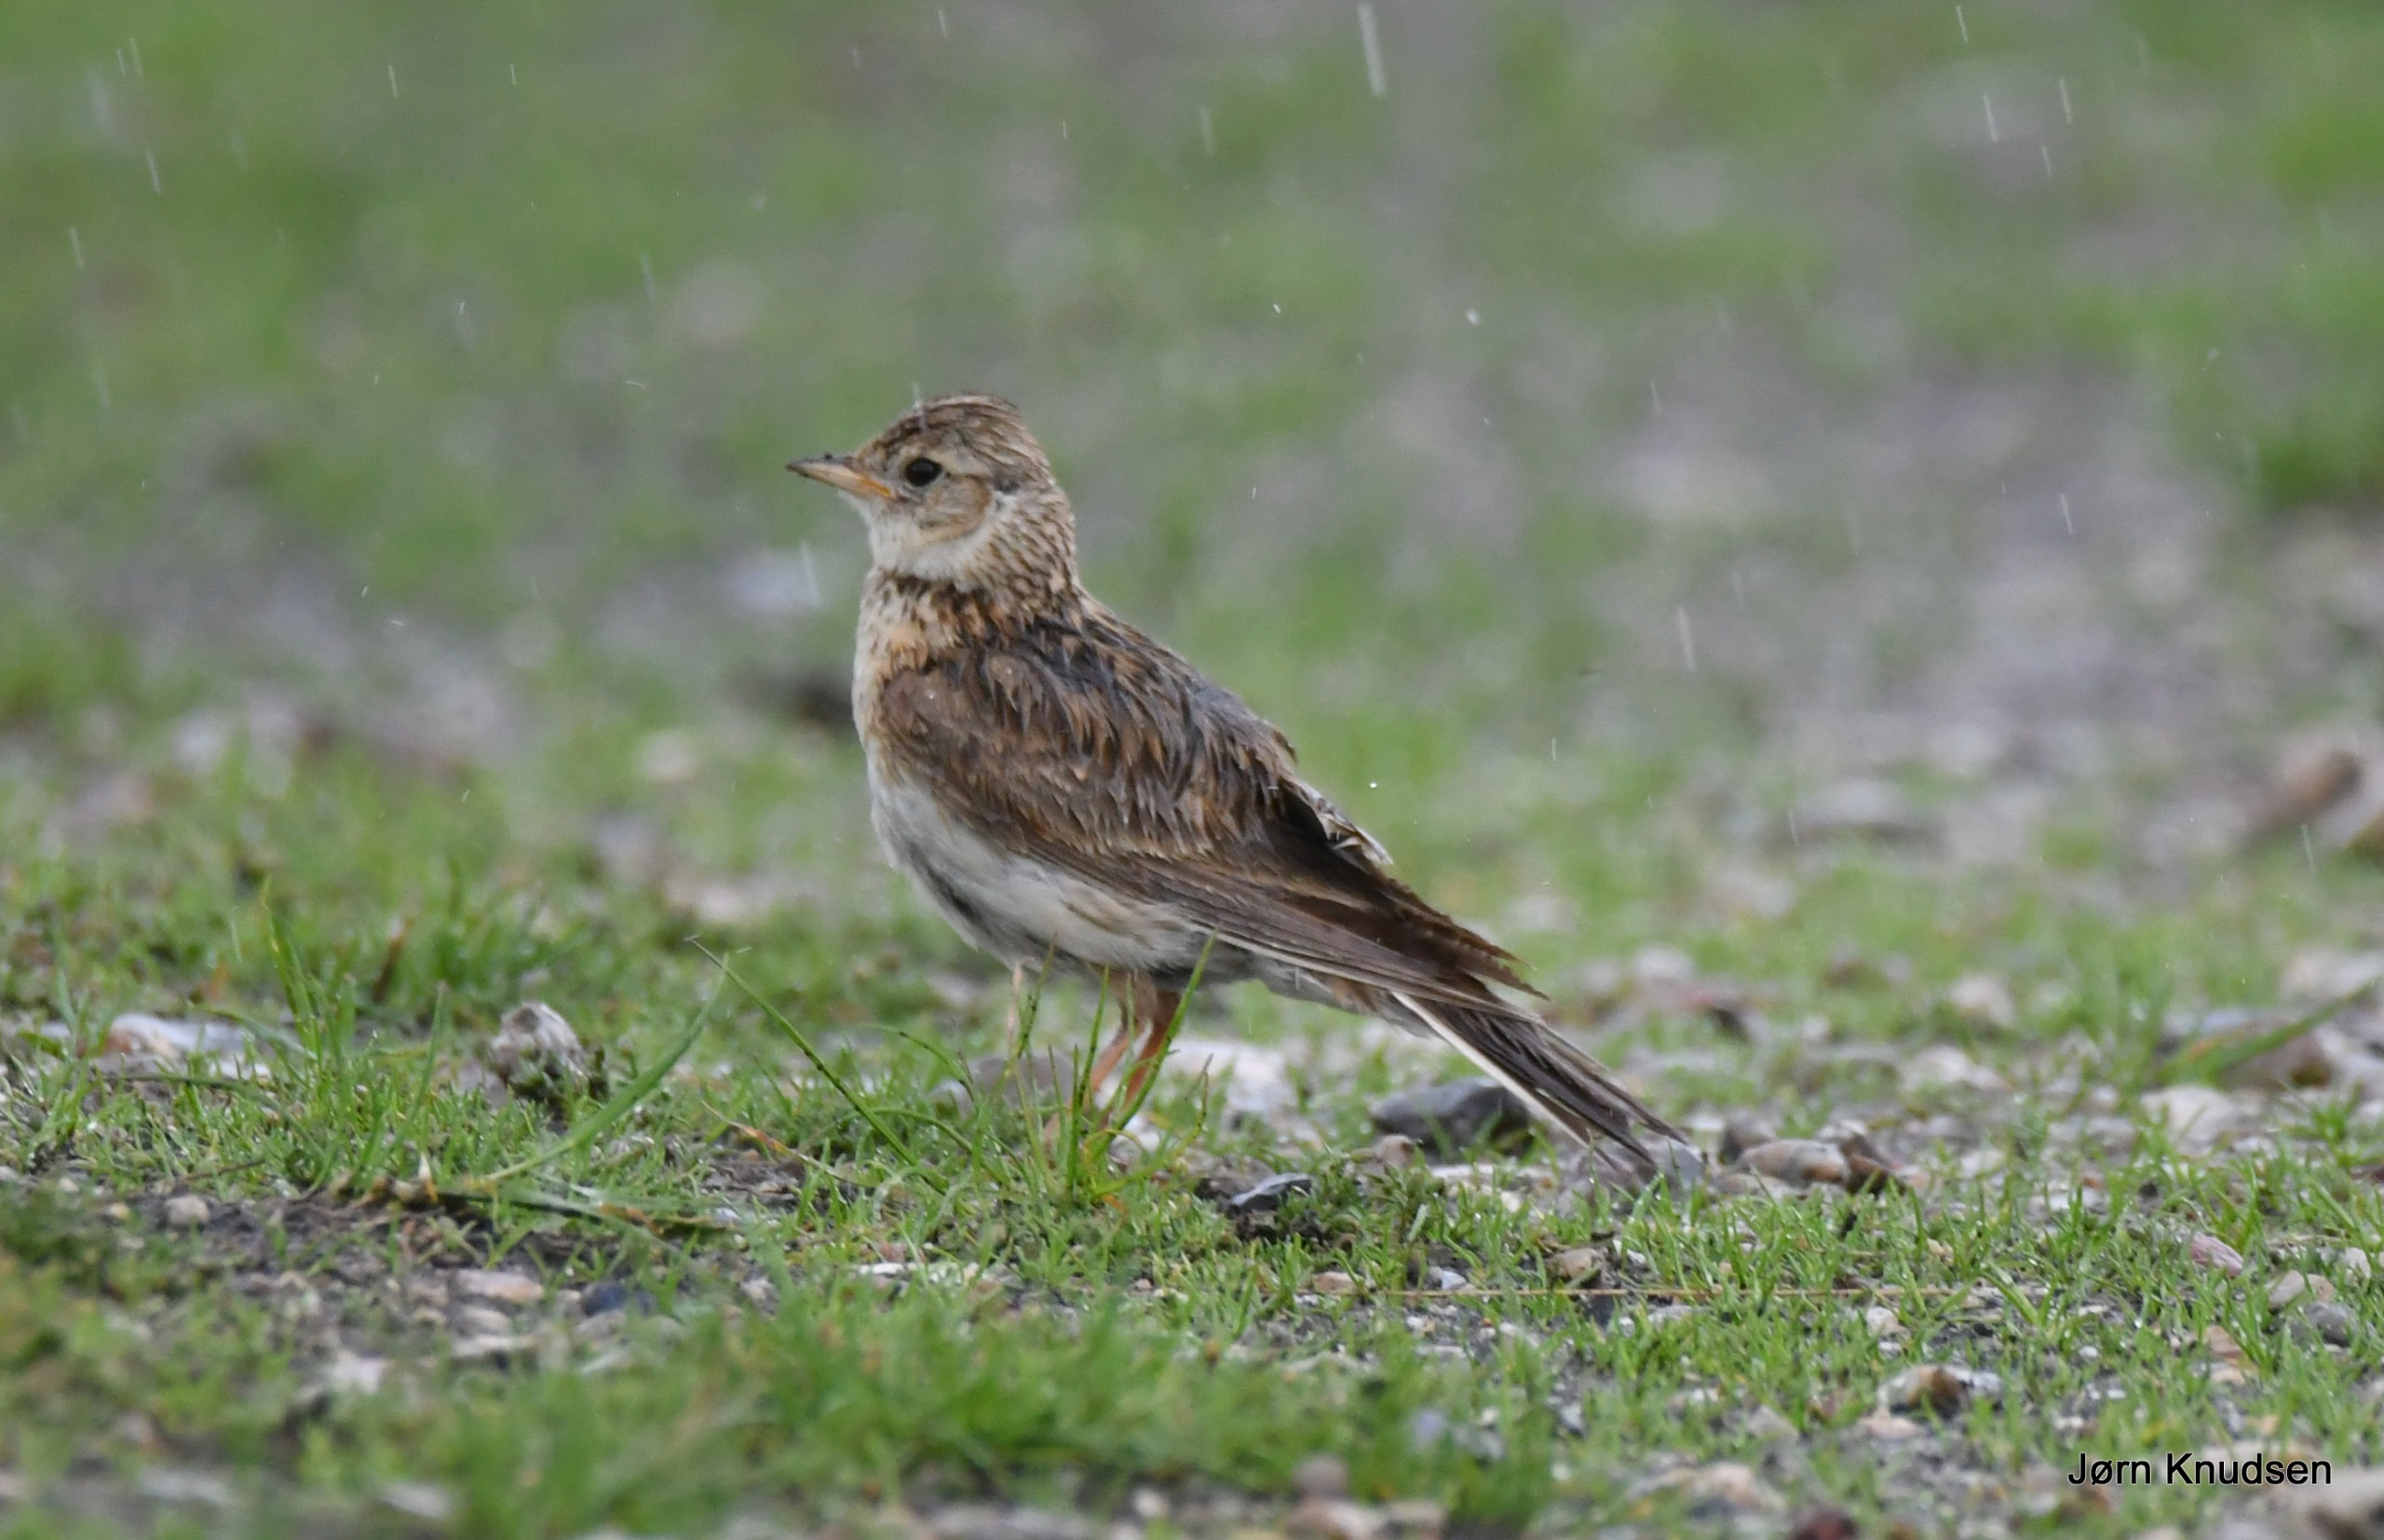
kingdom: Animalia
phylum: Chordata
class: Aves
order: Passeriformes
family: Alaudidae
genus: Alauda
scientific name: Alauda arvensis
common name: Sanglærke
